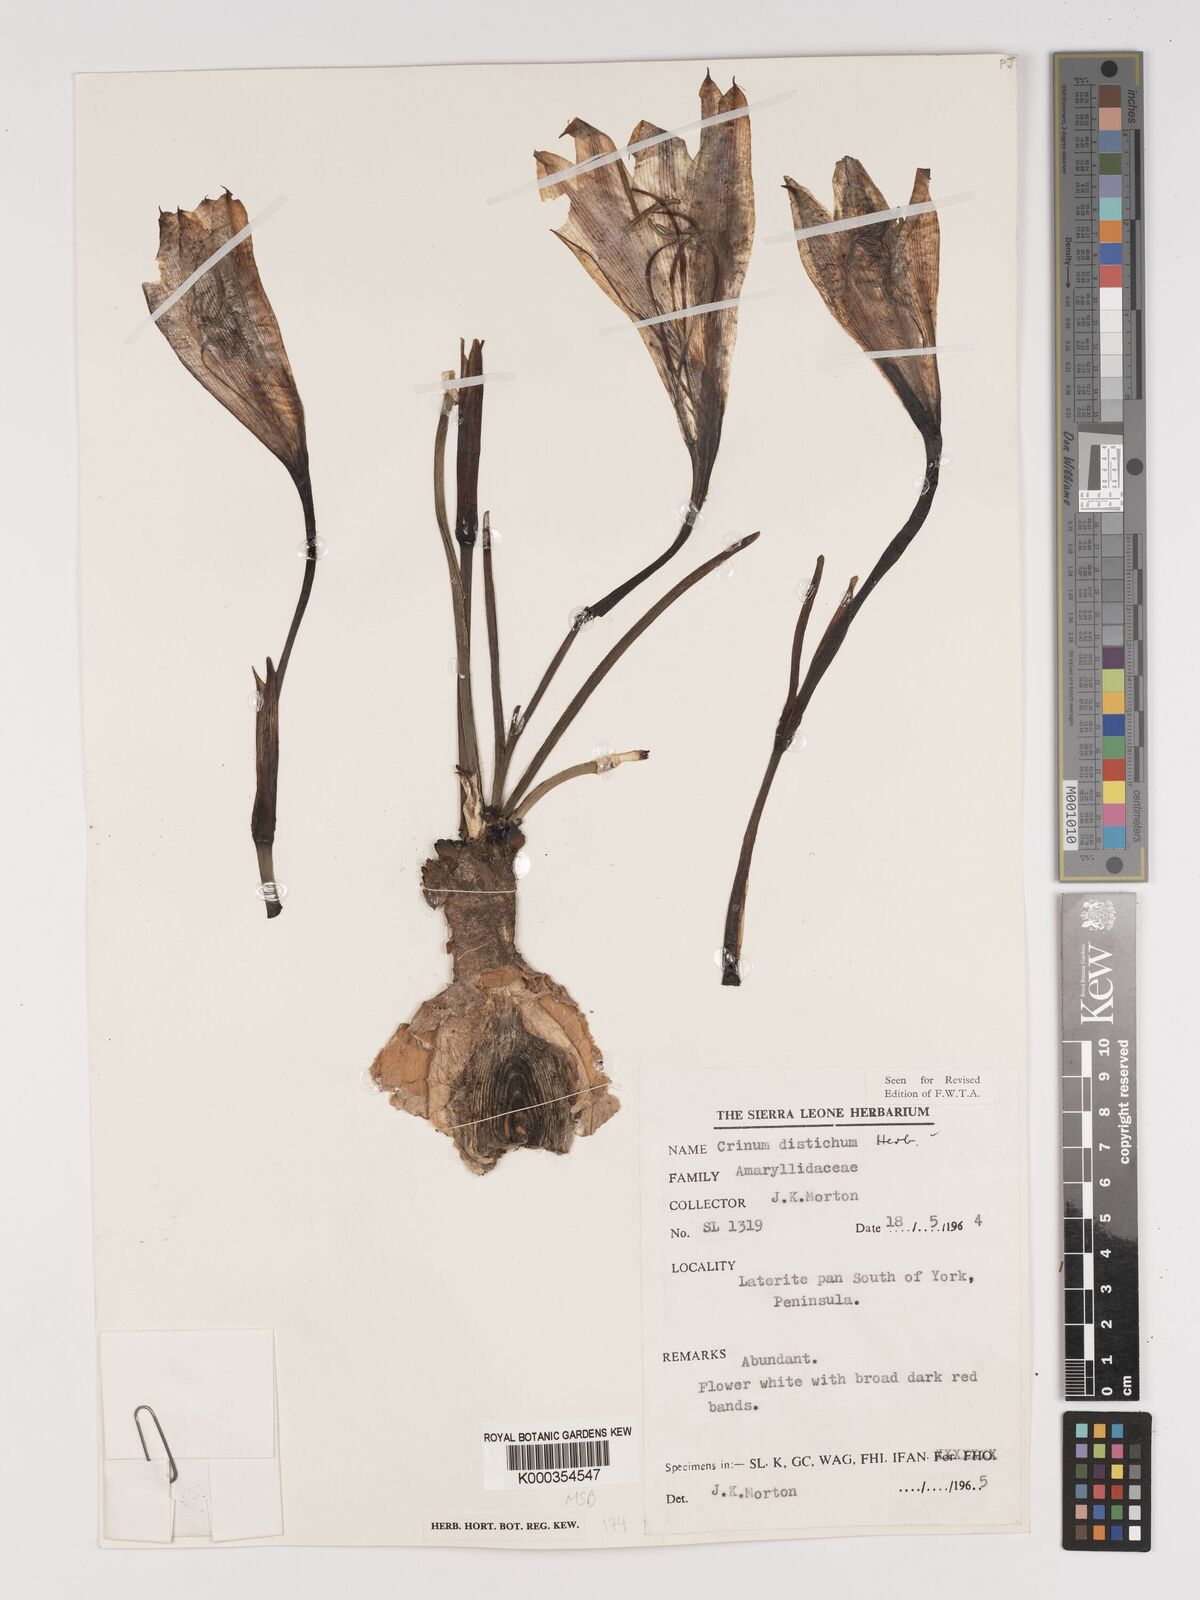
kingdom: Plantae
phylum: Tracheophyta
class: Liliopsida
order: Asparagales
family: Amaryllidaceae
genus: Crinum
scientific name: Crinum zeylanicum
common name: Ceylon swamplily
